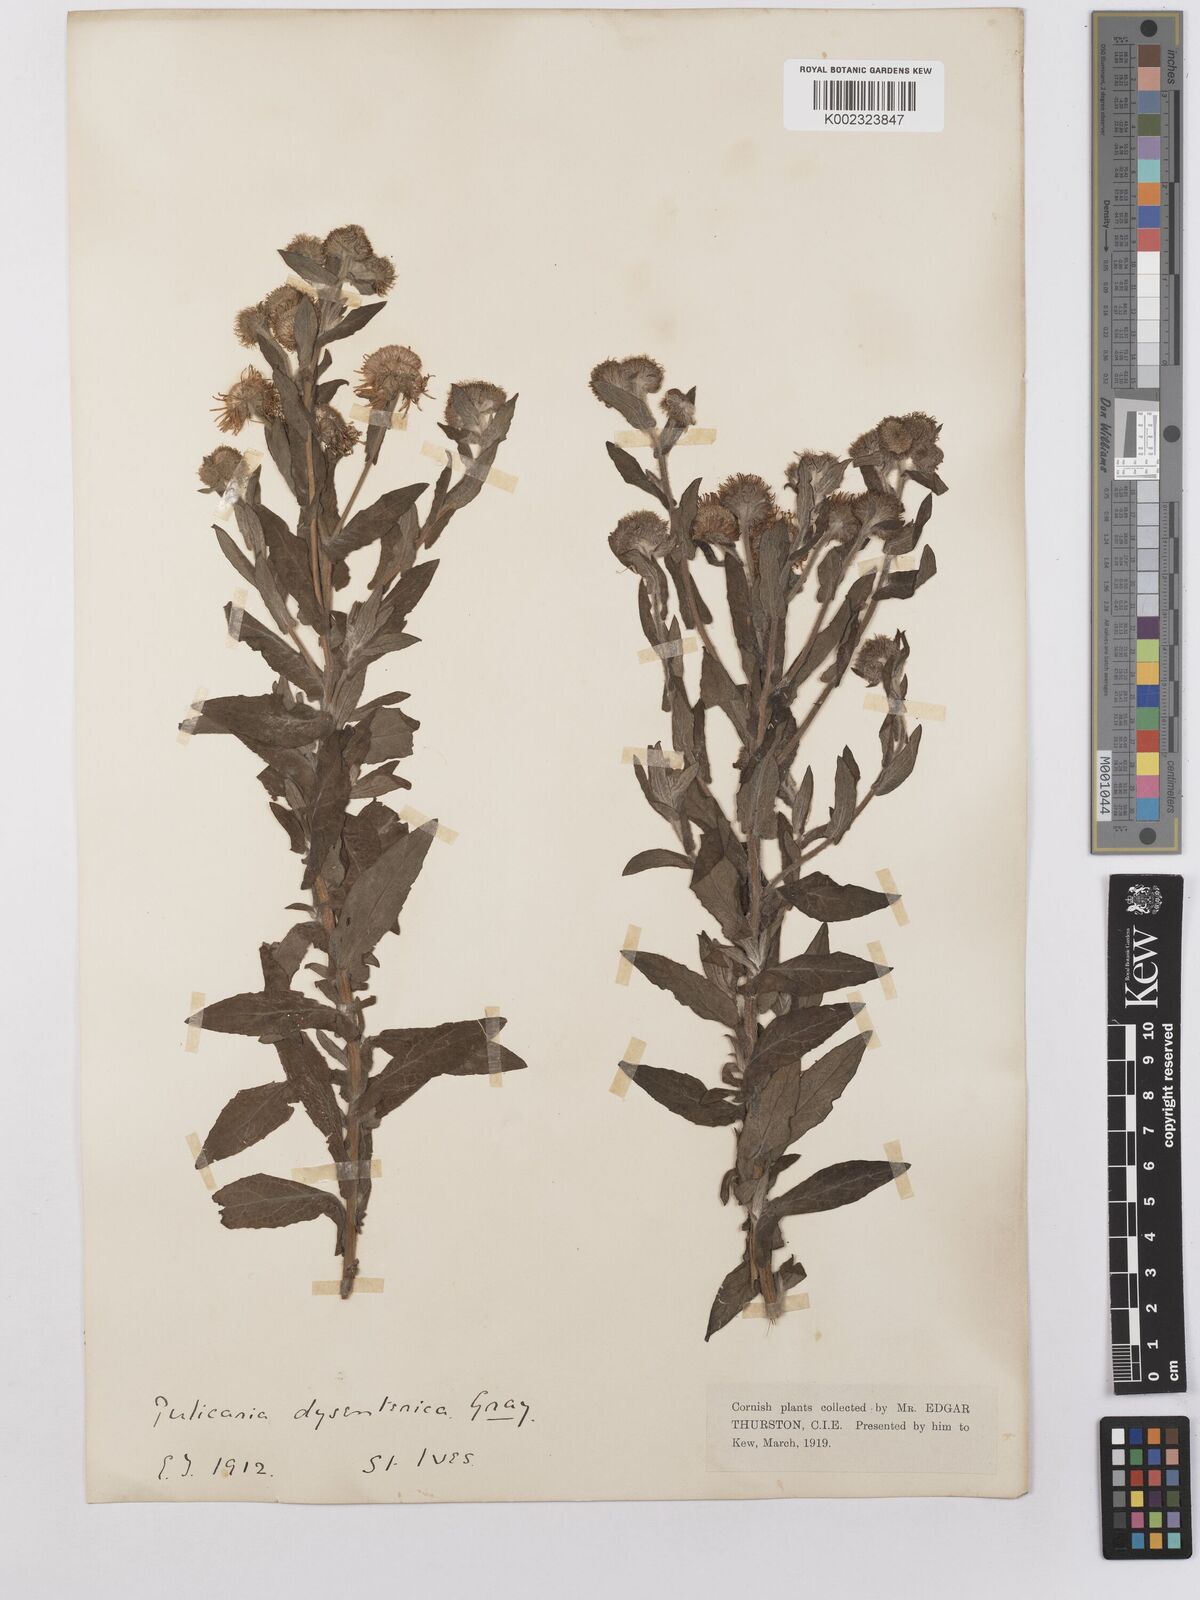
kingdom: Plantae
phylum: Tracheophyta
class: Magnoliopsida
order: Asterales
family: Asteraceae
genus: Pulicaria
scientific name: Pulicaria dysenterica
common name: Common fleabane
